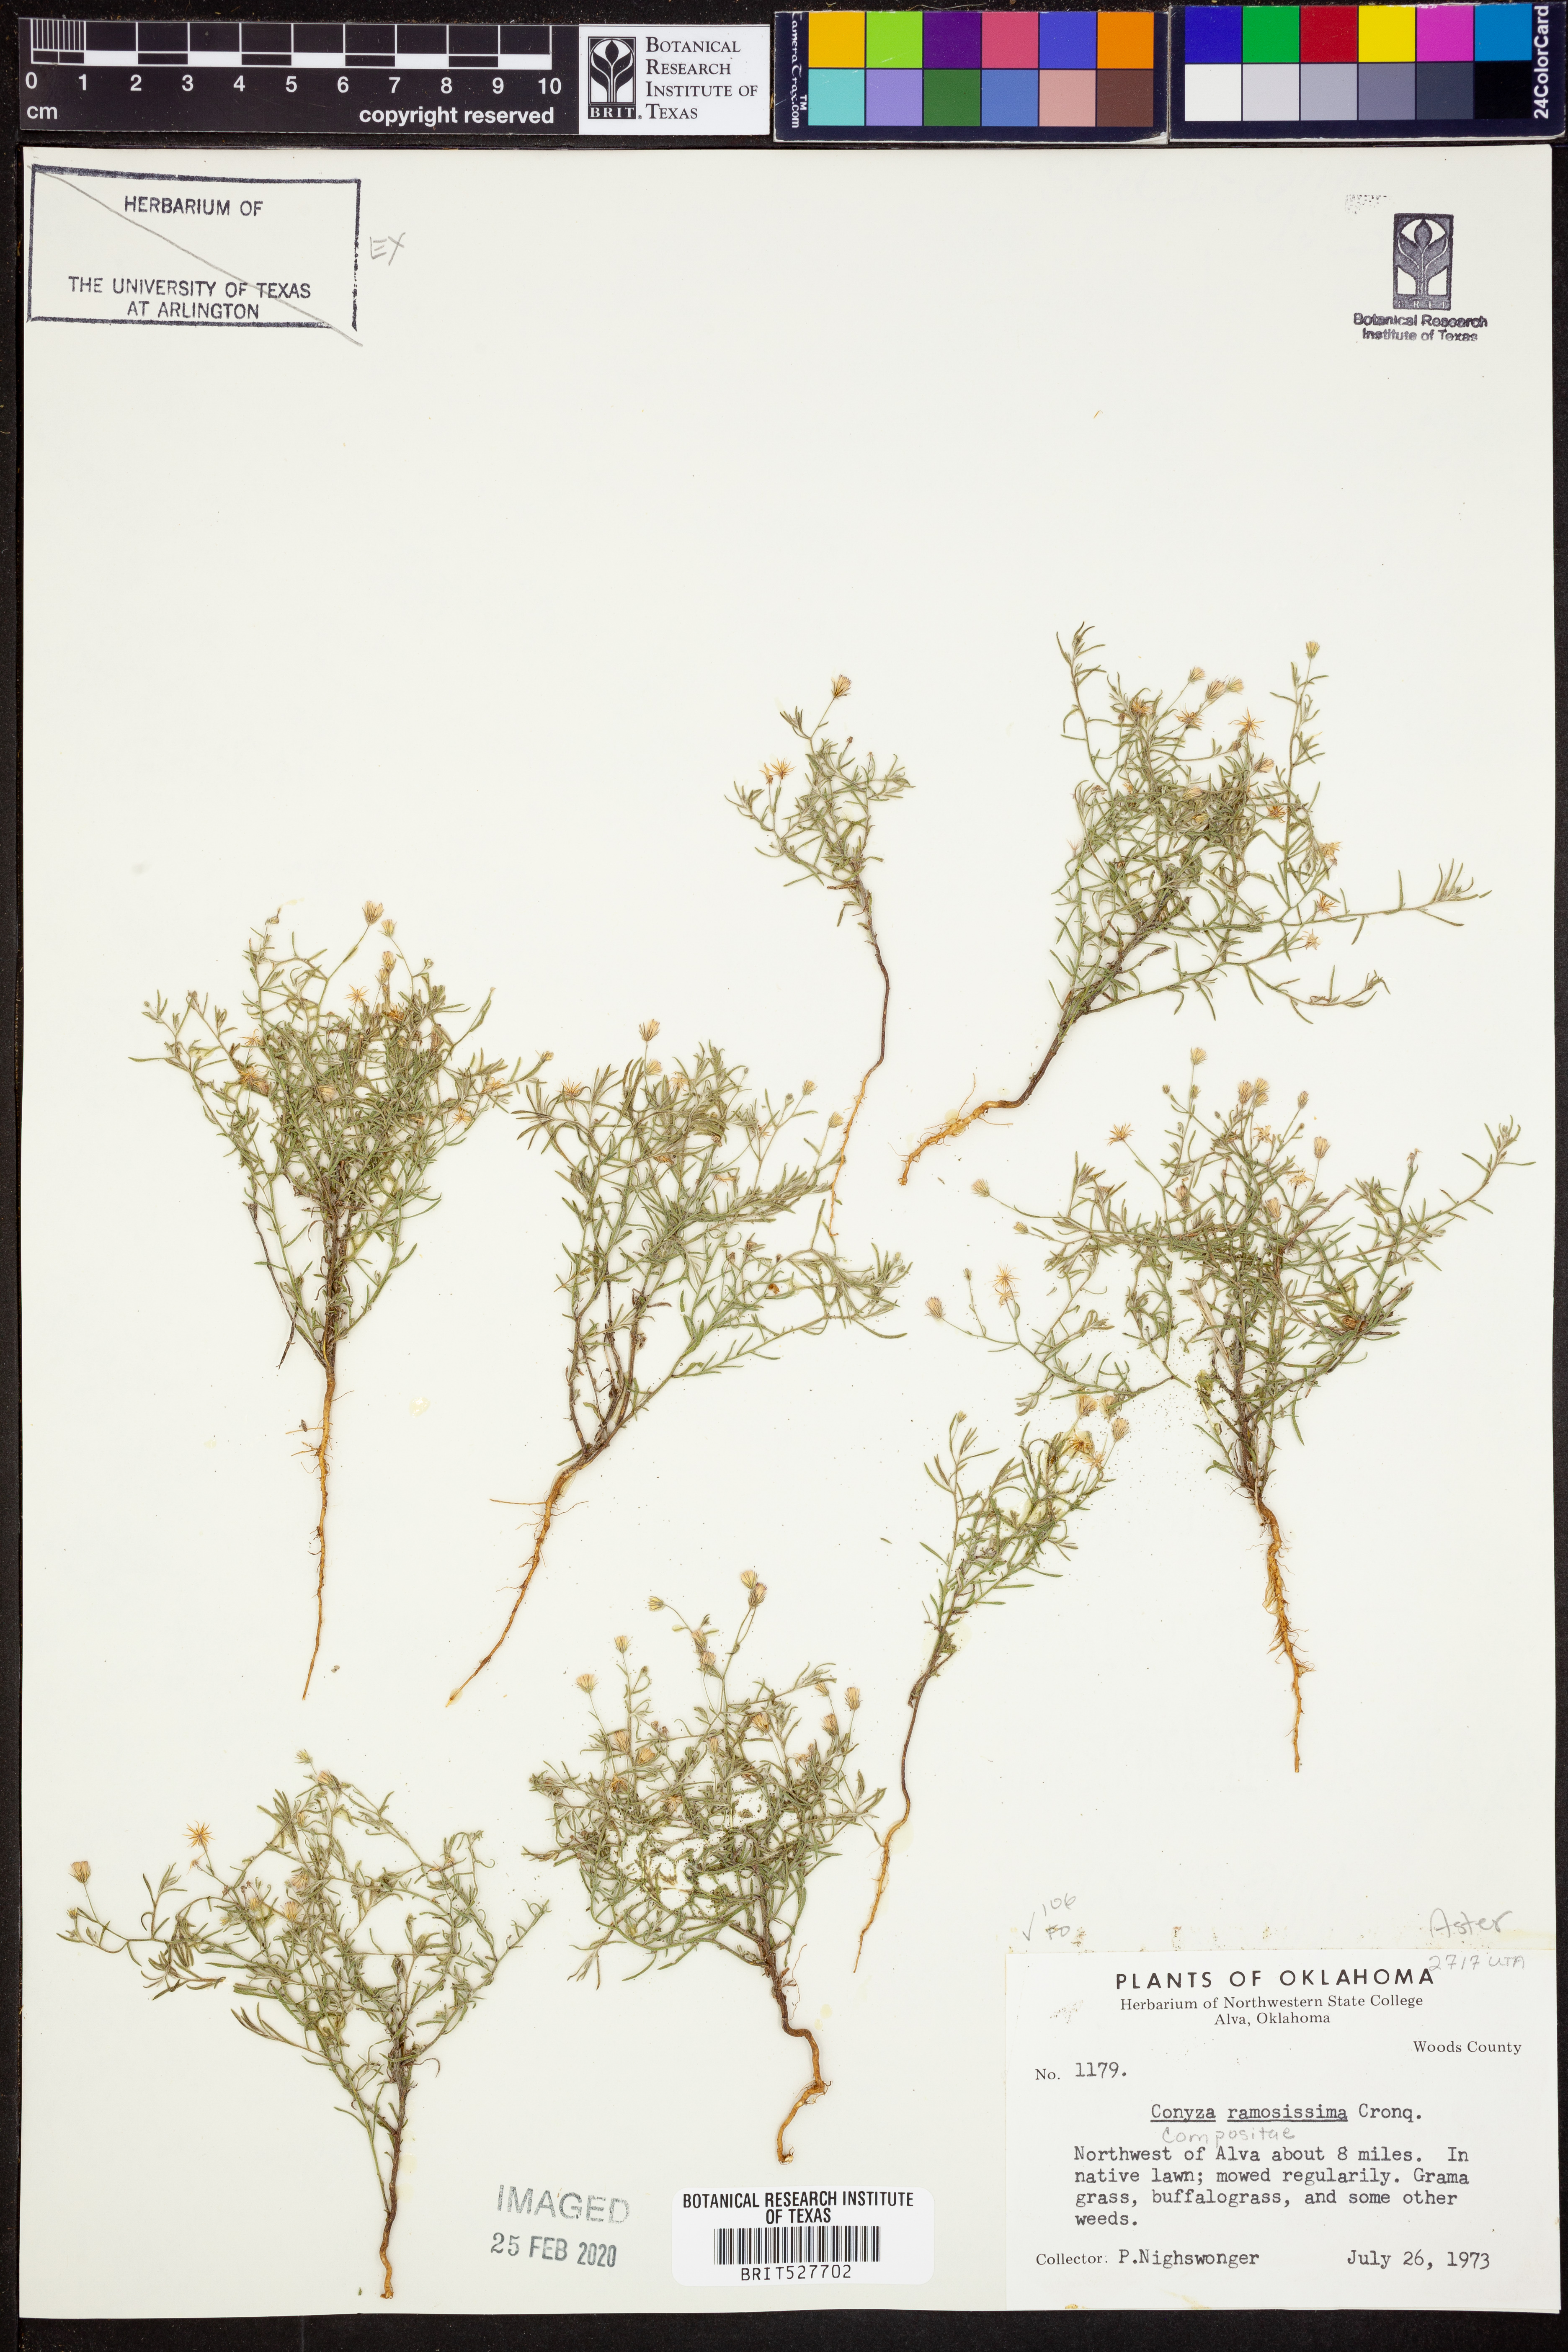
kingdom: Plantae
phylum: Tracheophyta
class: Magnoliopsida
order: Asterales
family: Asteraceae
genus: Erigeron
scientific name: Erigeron divaricatus
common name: Dwarf conyza
